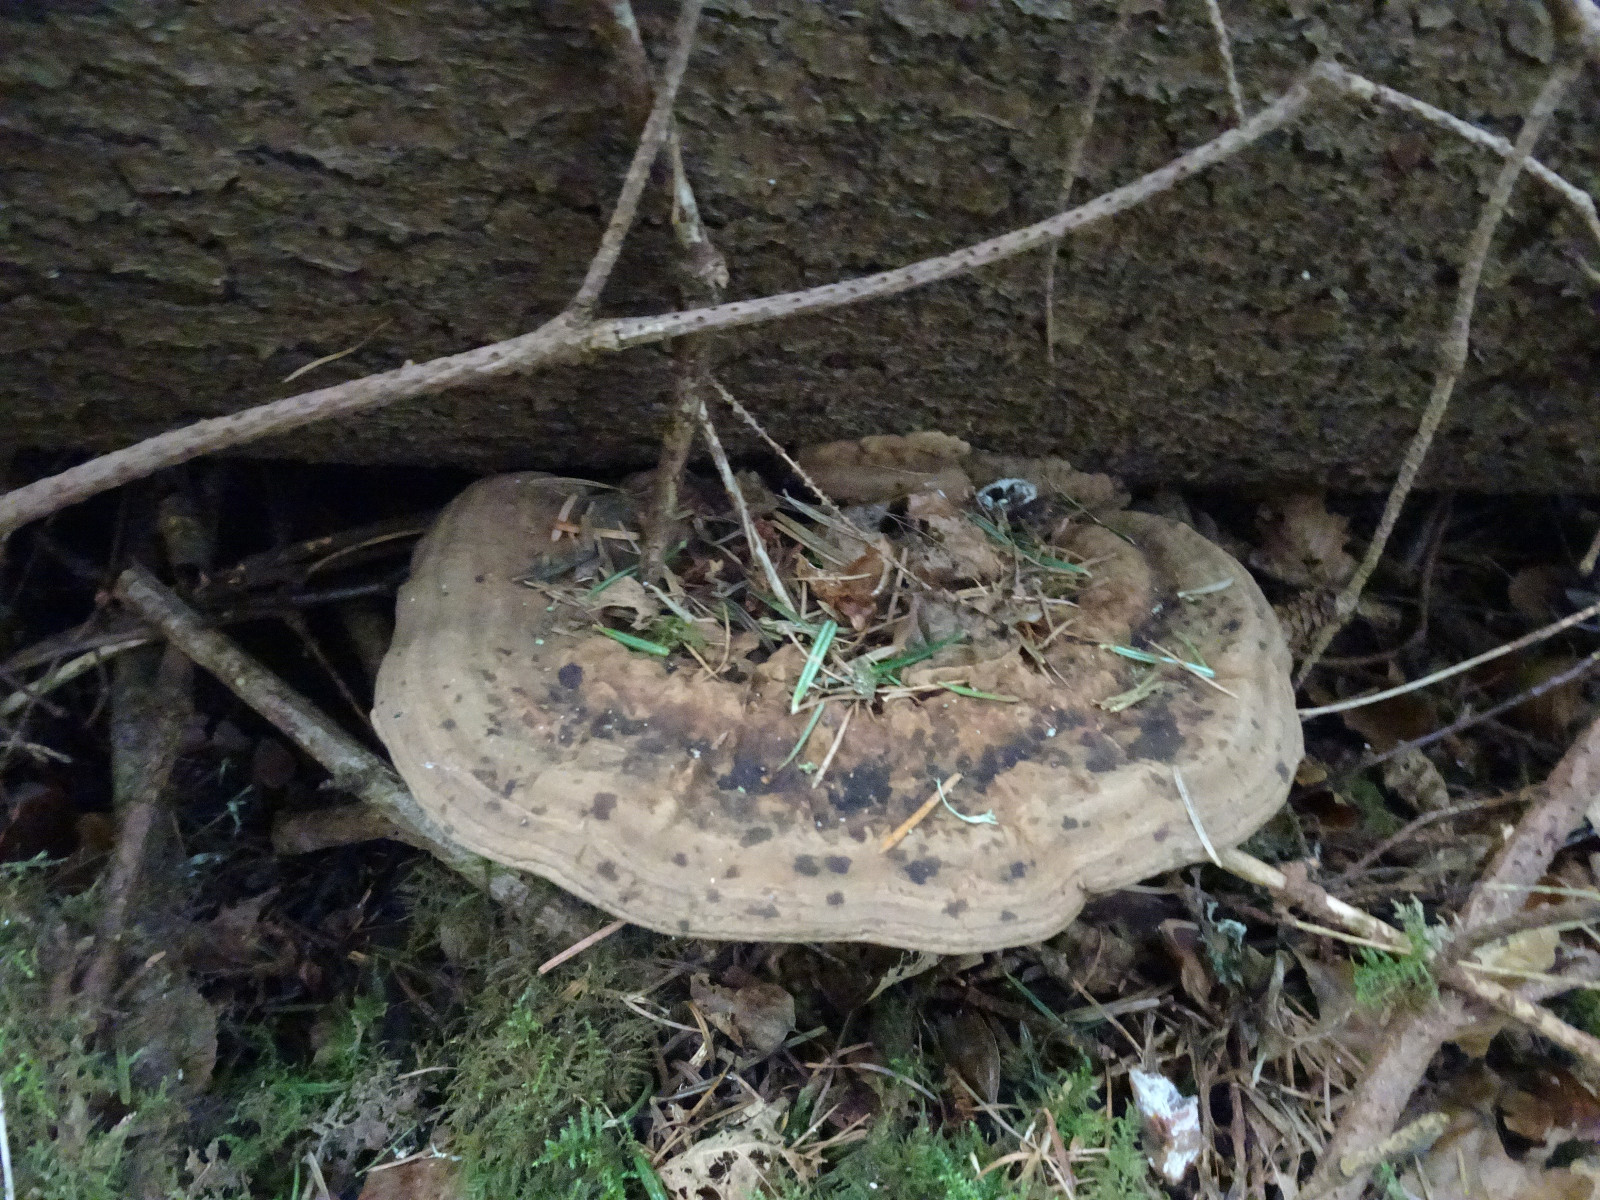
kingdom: Fungi
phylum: Basidiomycota
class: Agaricomycetes
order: Polyporales
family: Polyporaceae
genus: Ganoderma
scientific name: Ganoderma applanatum
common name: flad lakporesvamp
